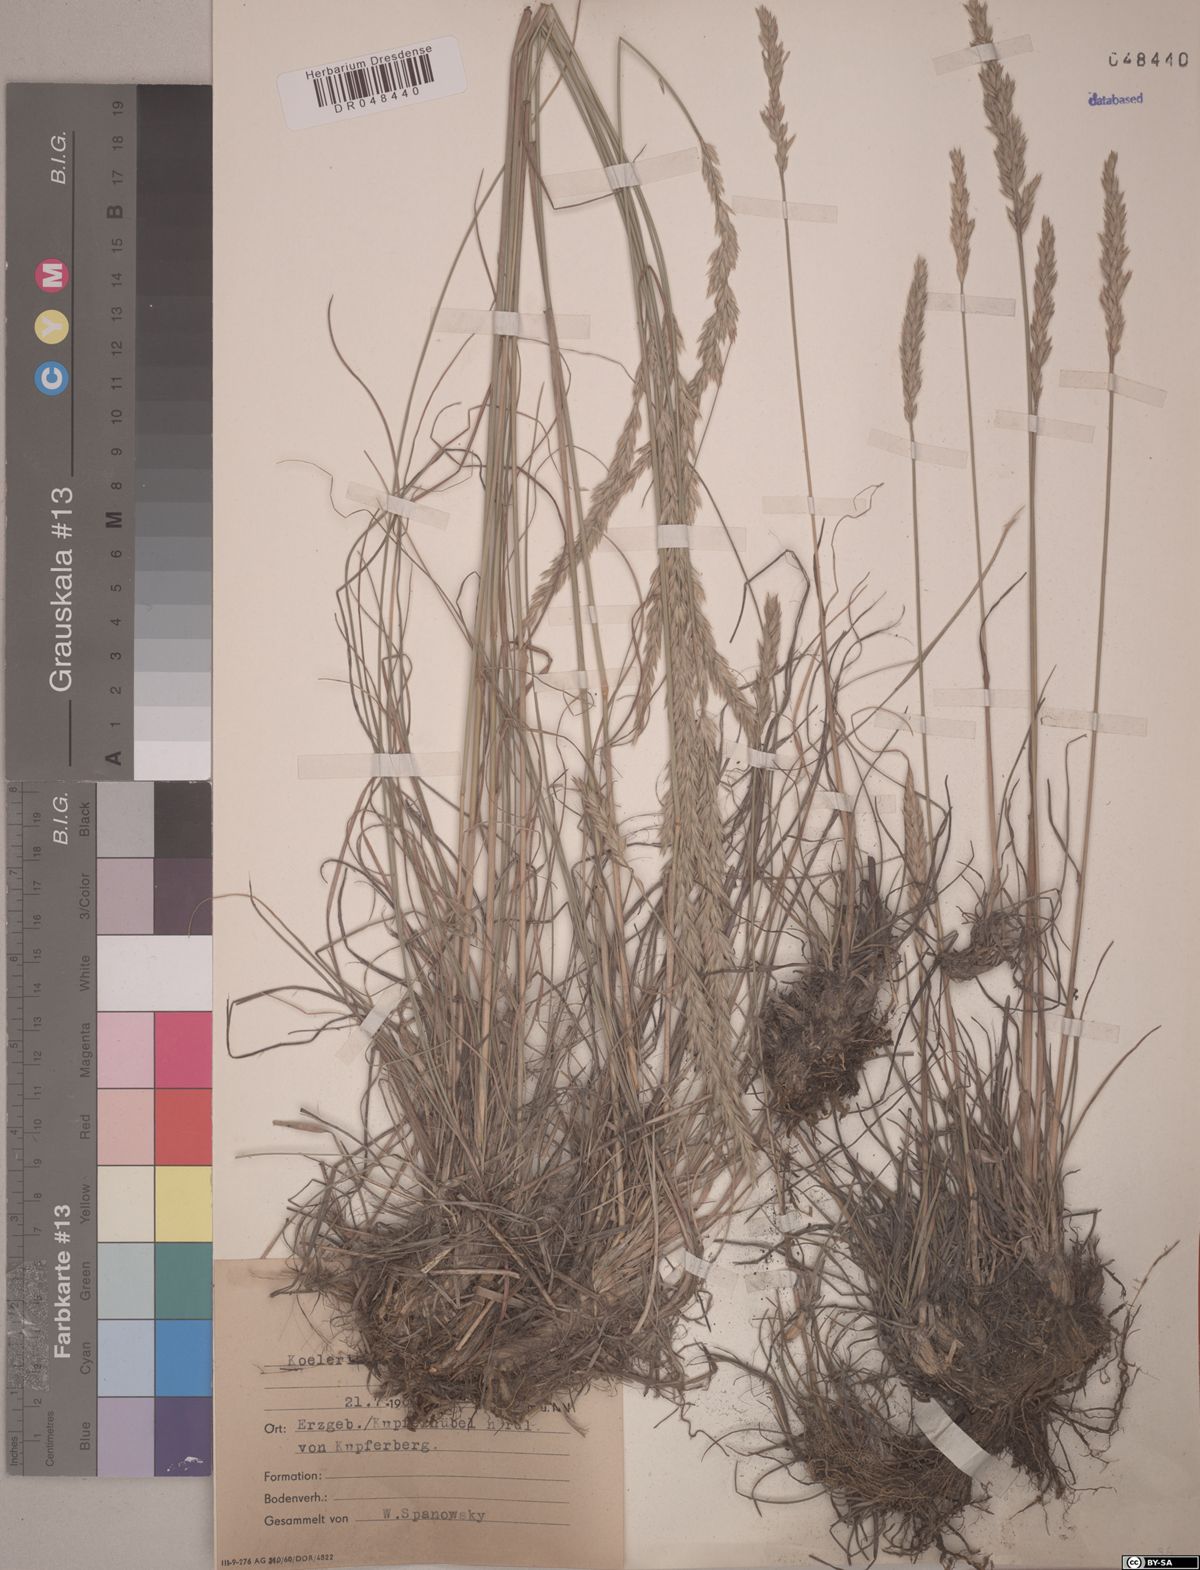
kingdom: Plantae
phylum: Tracheophyta
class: Liliopsida
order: Poales
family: Poaceae
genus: Koeleria
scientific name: Koeleria pyramidata
